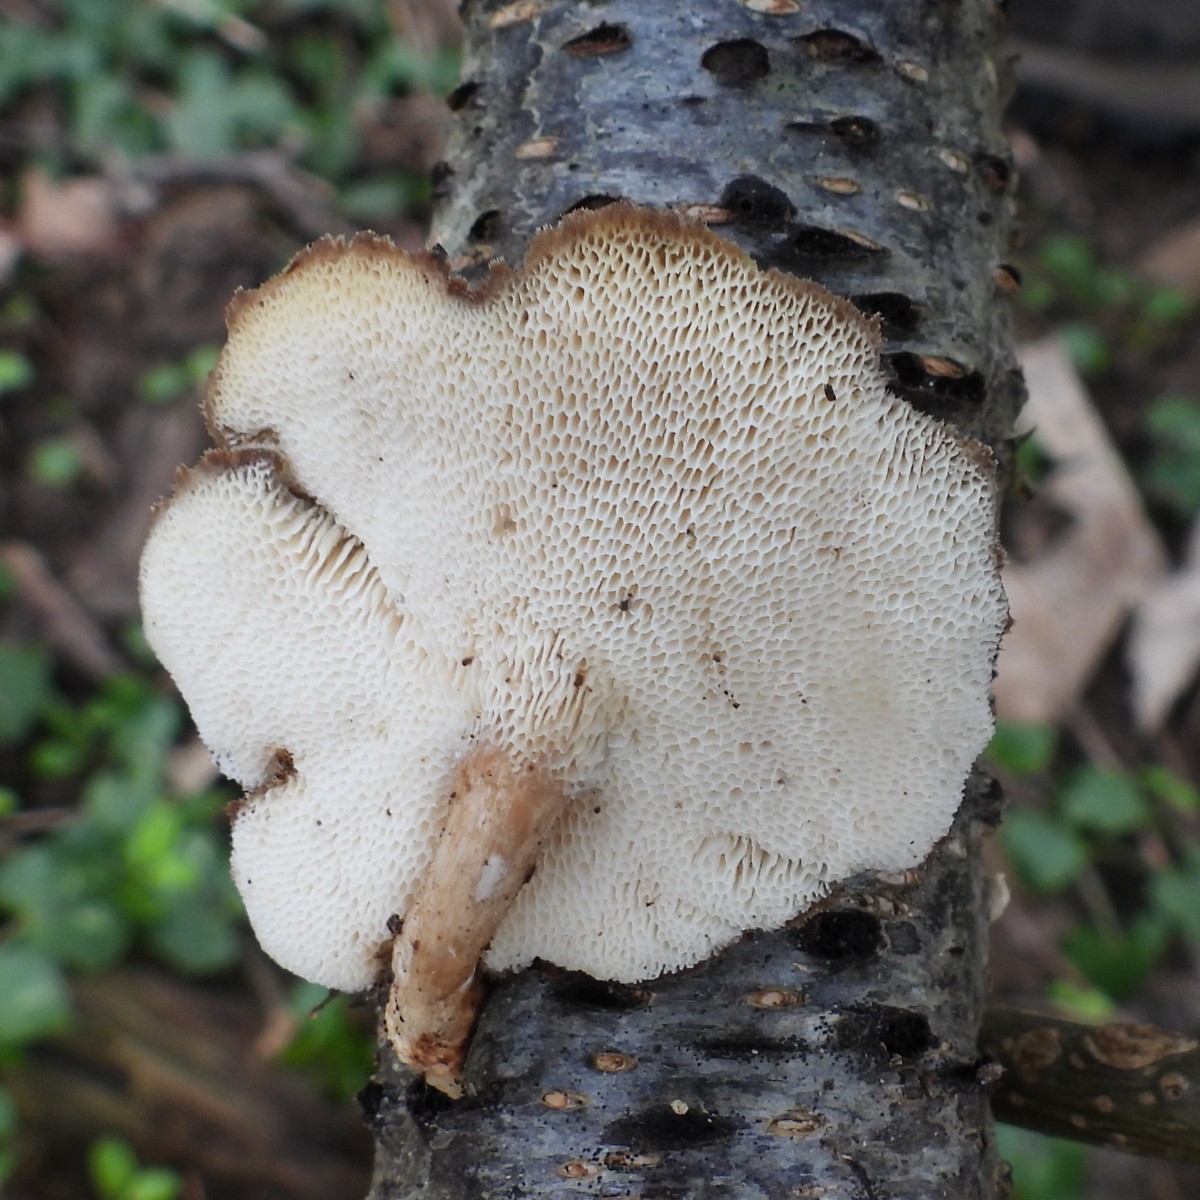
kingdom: Fungi
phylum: Basidiomycota
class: Agaricomycetes
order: Polyporales
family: Polyporaceae
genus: Lentinus
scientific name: Lentinus brumalis
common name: vinter-stilkporesvamp
